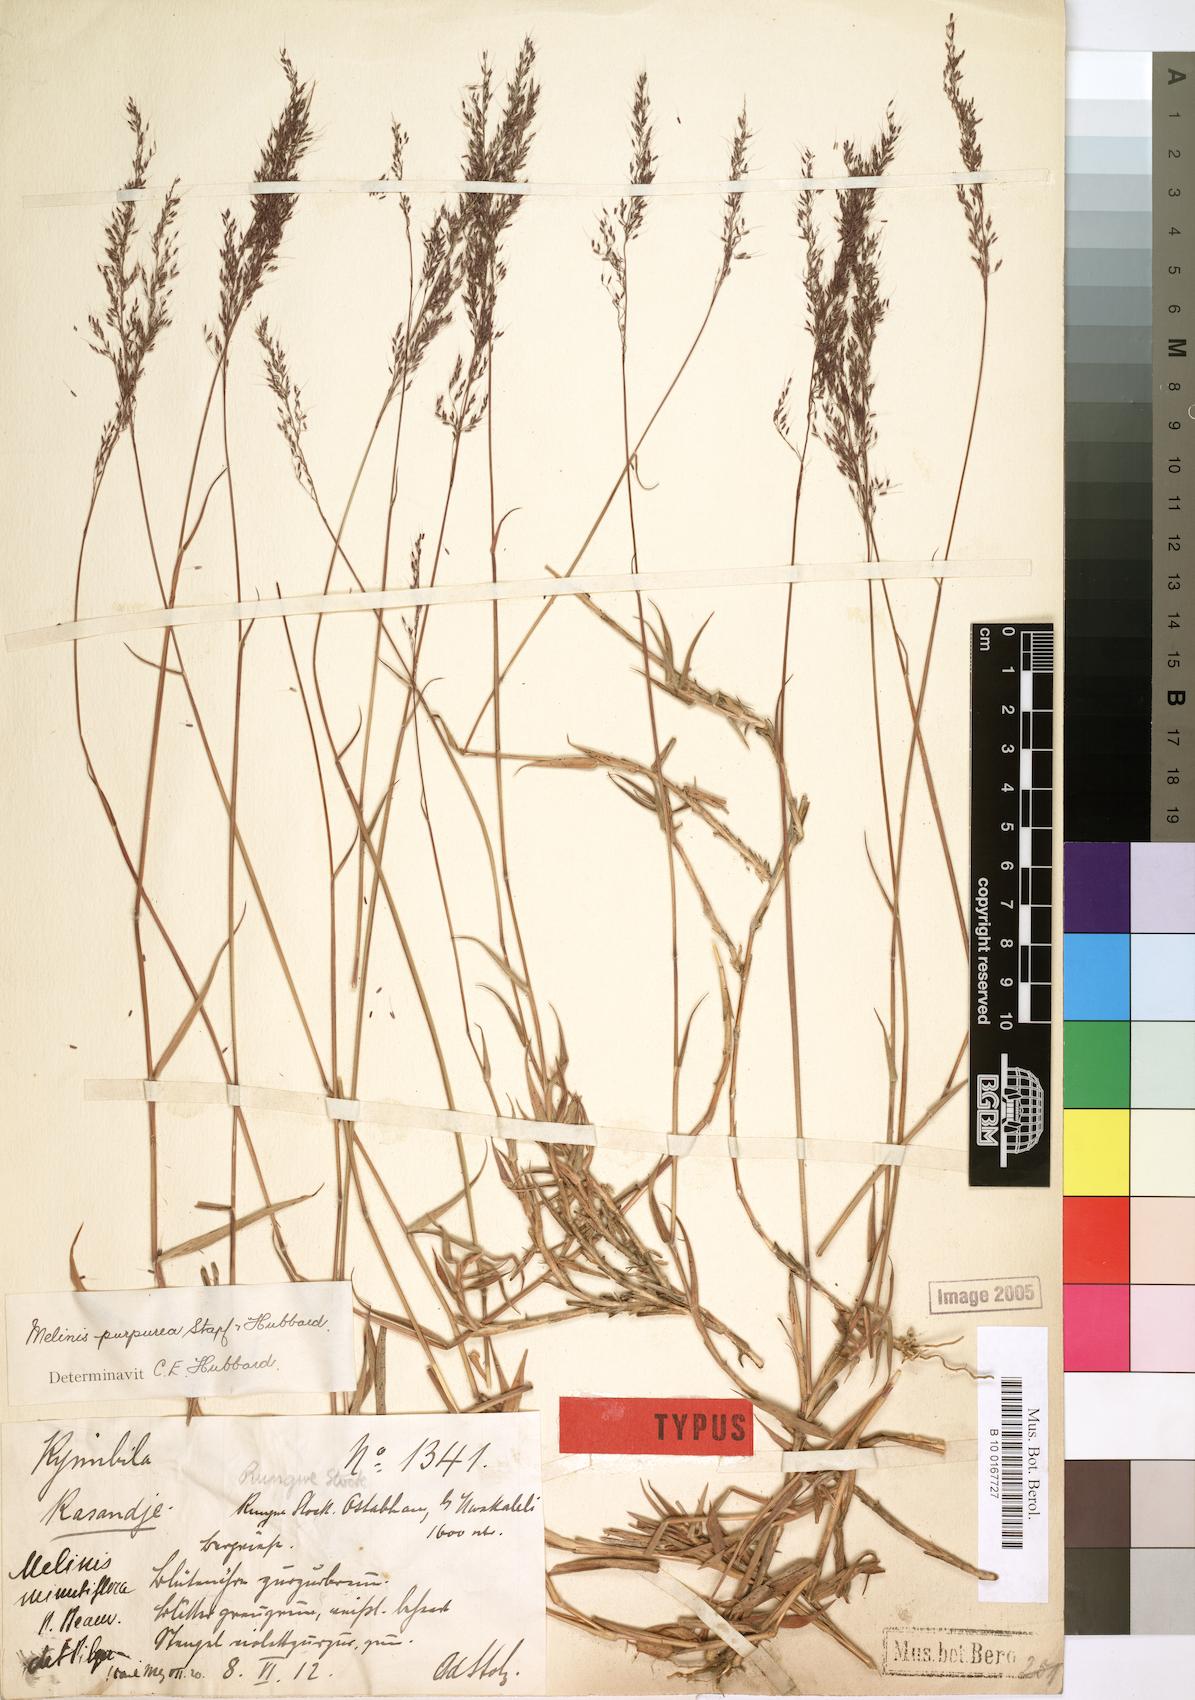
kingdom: Plantae
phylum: Tracheophyta
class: Liliopsida
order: Poales
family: Poaceae
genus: Melinis
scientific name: Melinis minutiflora
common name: Molassesgrass
